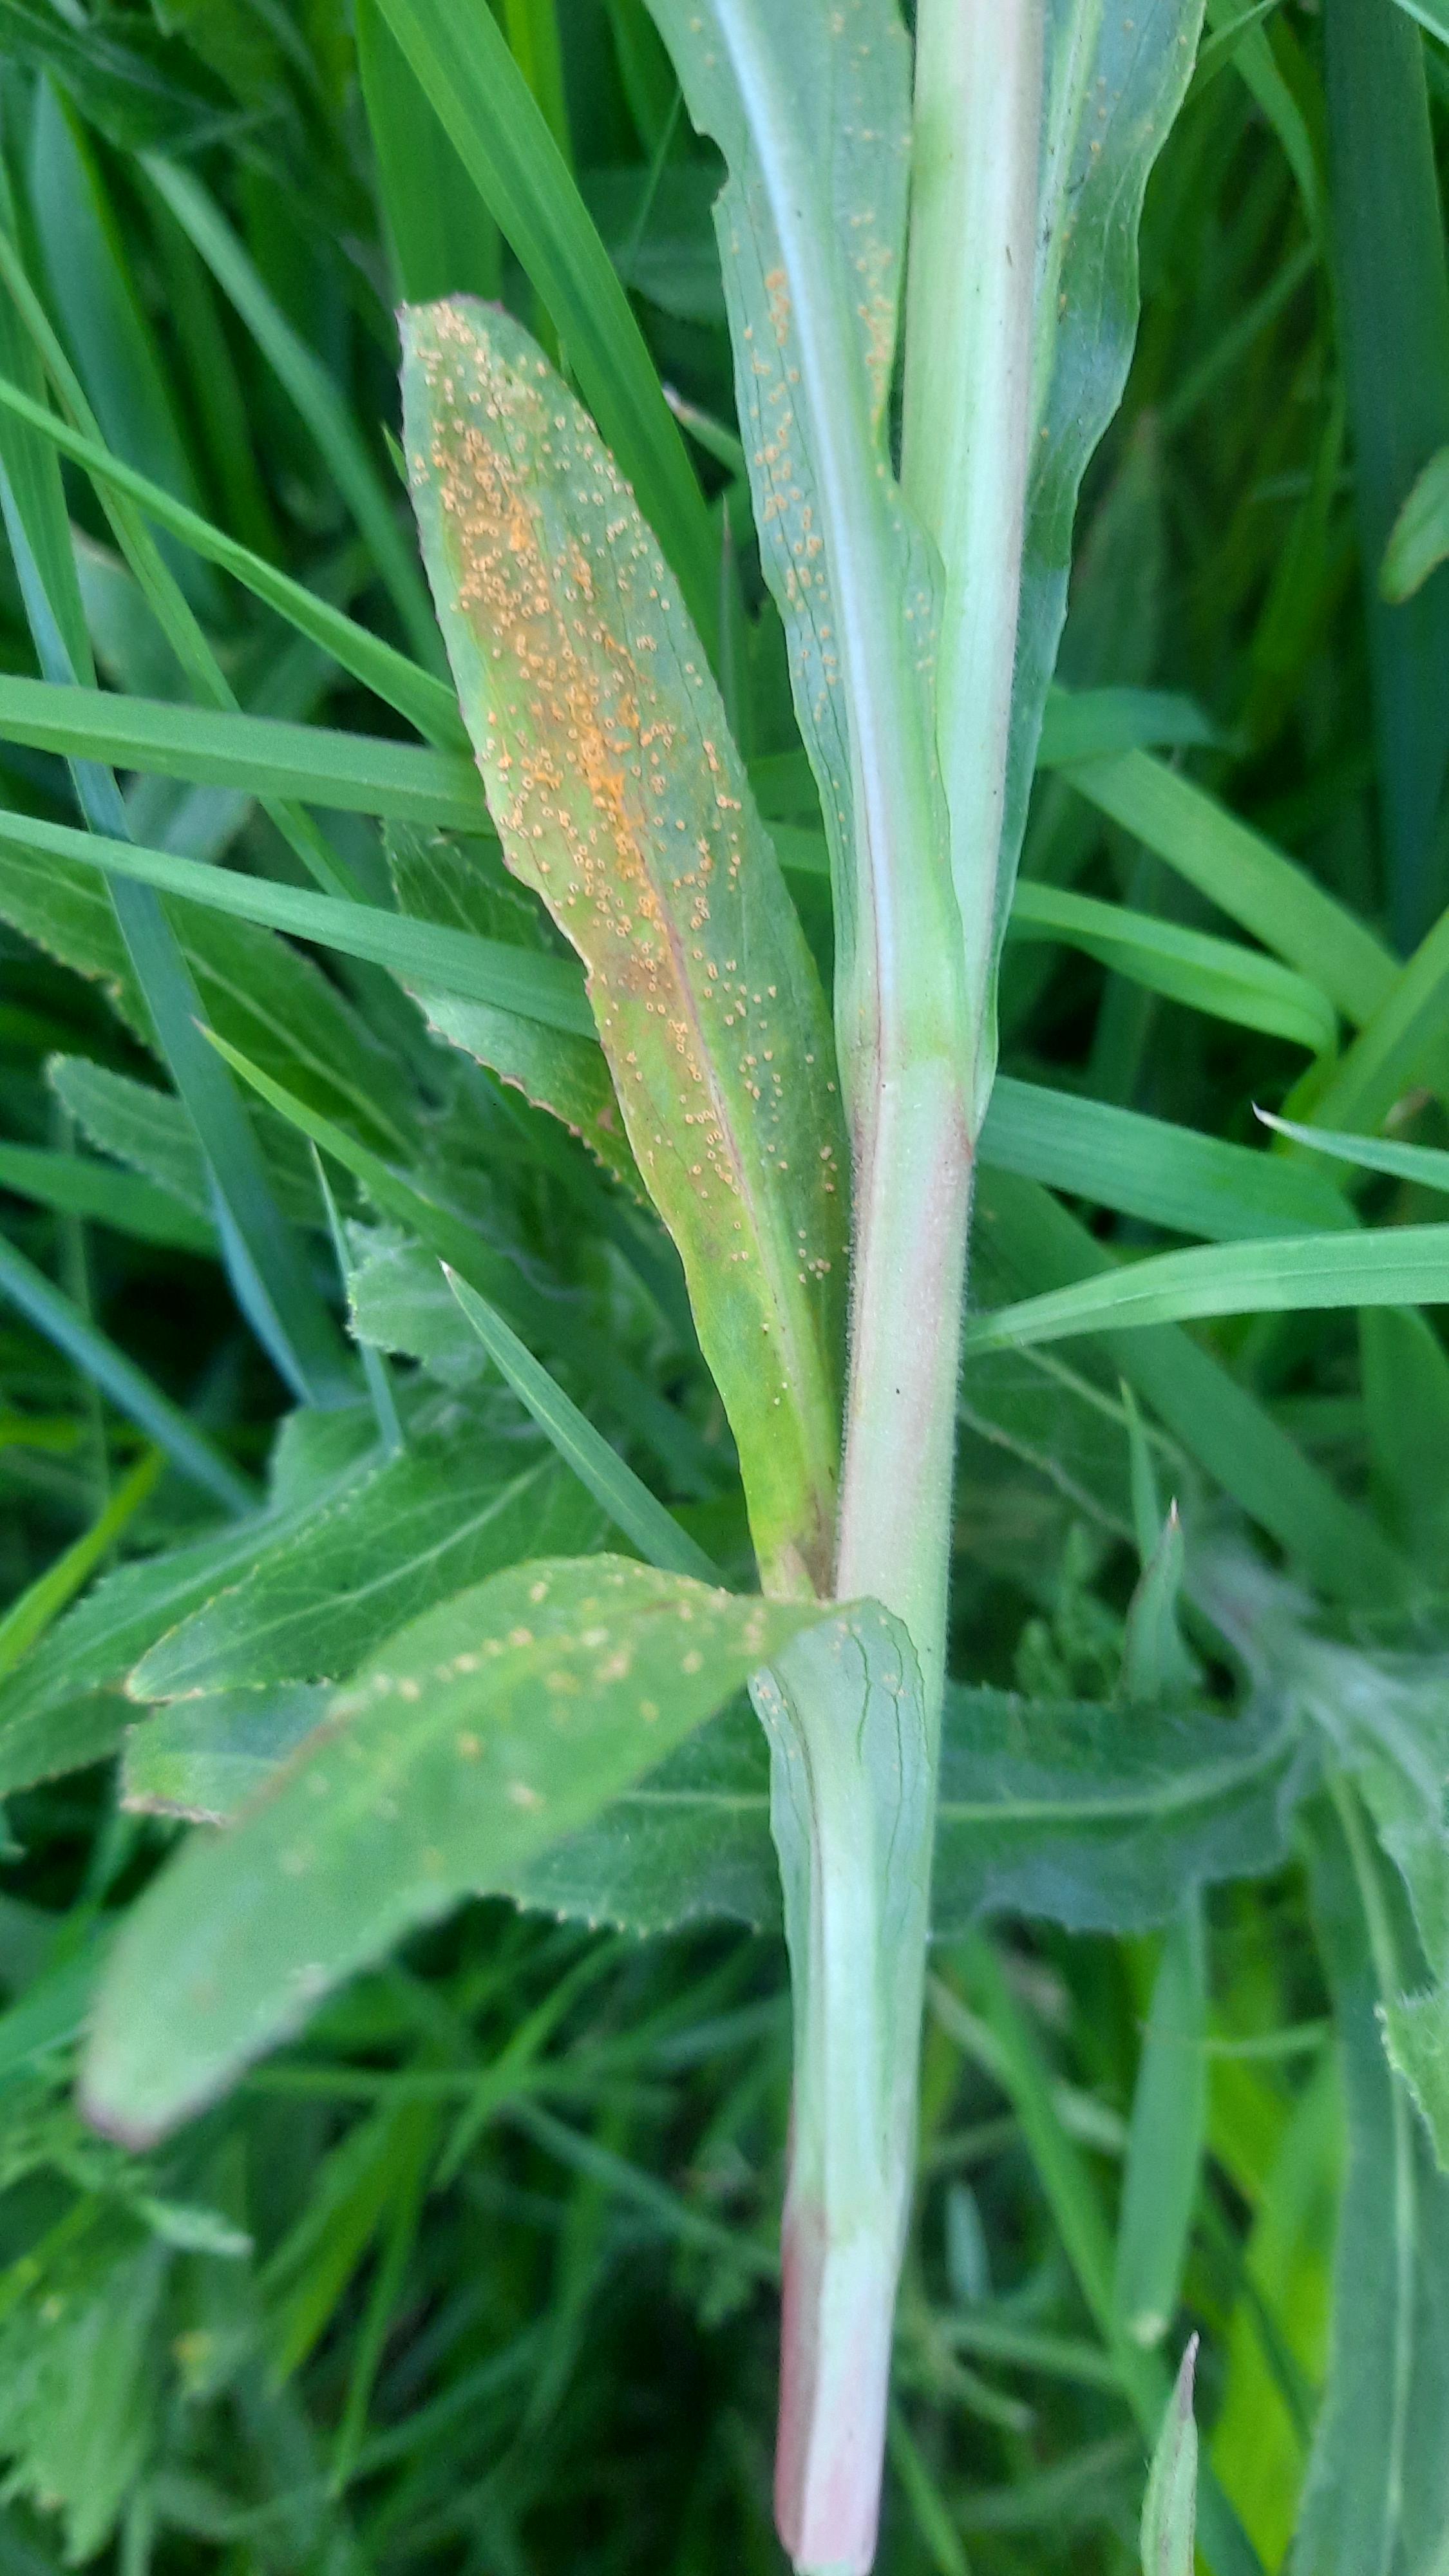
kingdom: Fungi
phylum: Basidiomycota
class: Pucciniomycetes
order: Pucciniales
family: Pucciniaceae
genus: Puccinia
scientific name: Puccinia pulverulenta
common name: dueurt-tvecellerust
